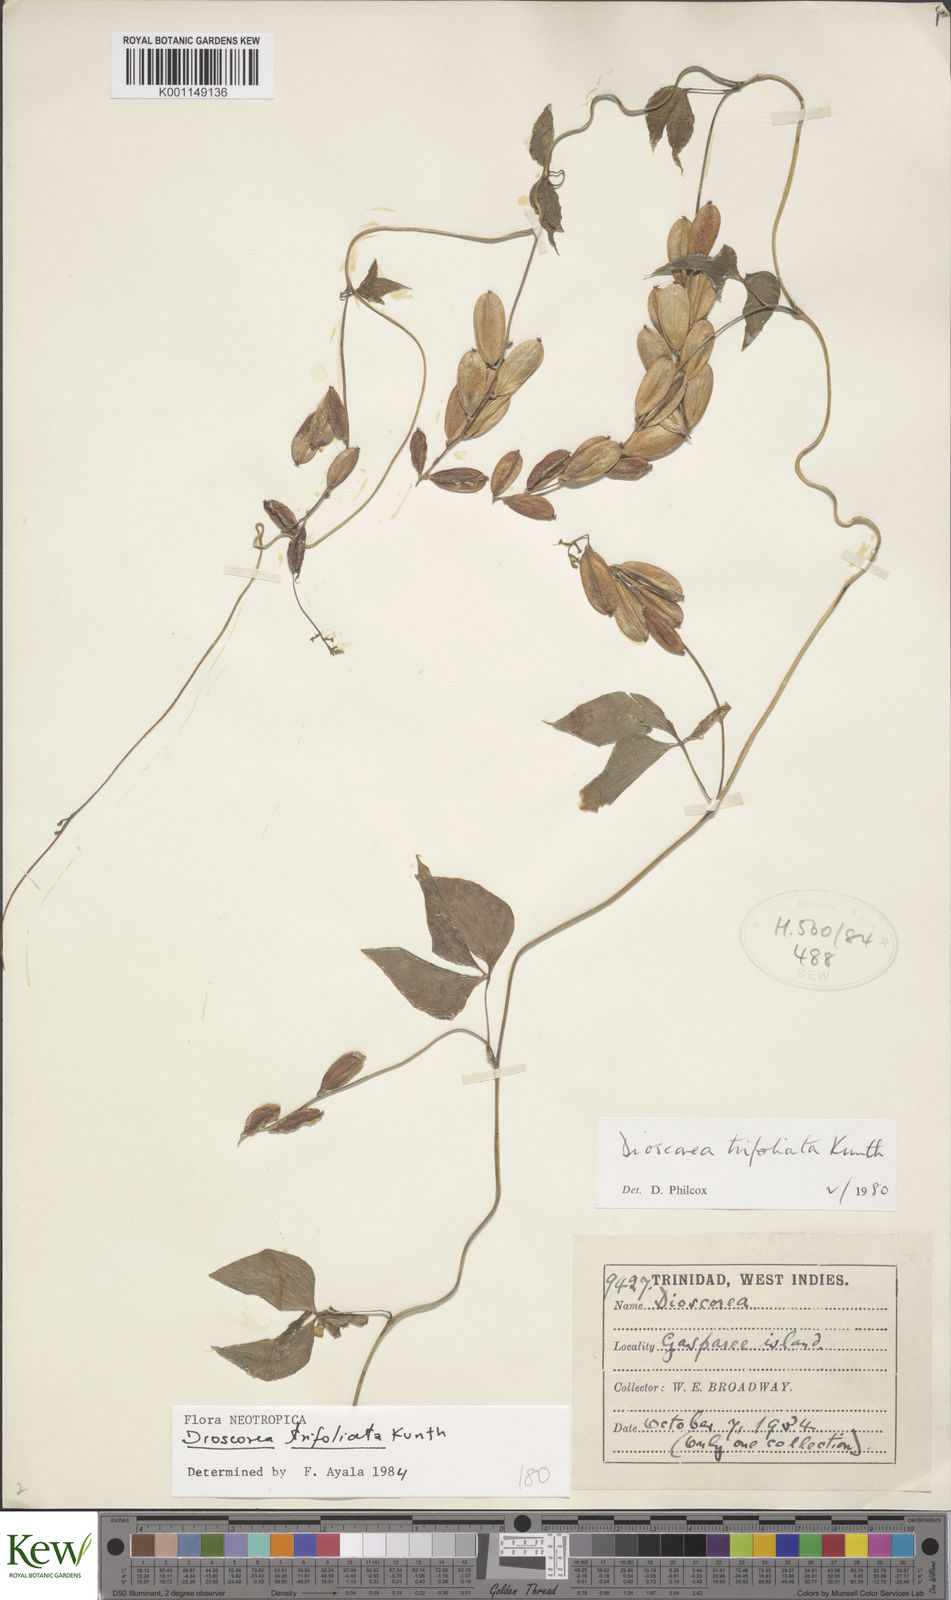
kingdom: Plantae
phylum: Tracheophyta
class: Liliopsida
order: Dioscoreales
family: Dioscoreaceae
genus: Dioscorea
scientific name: Dioscorea trifoliata
